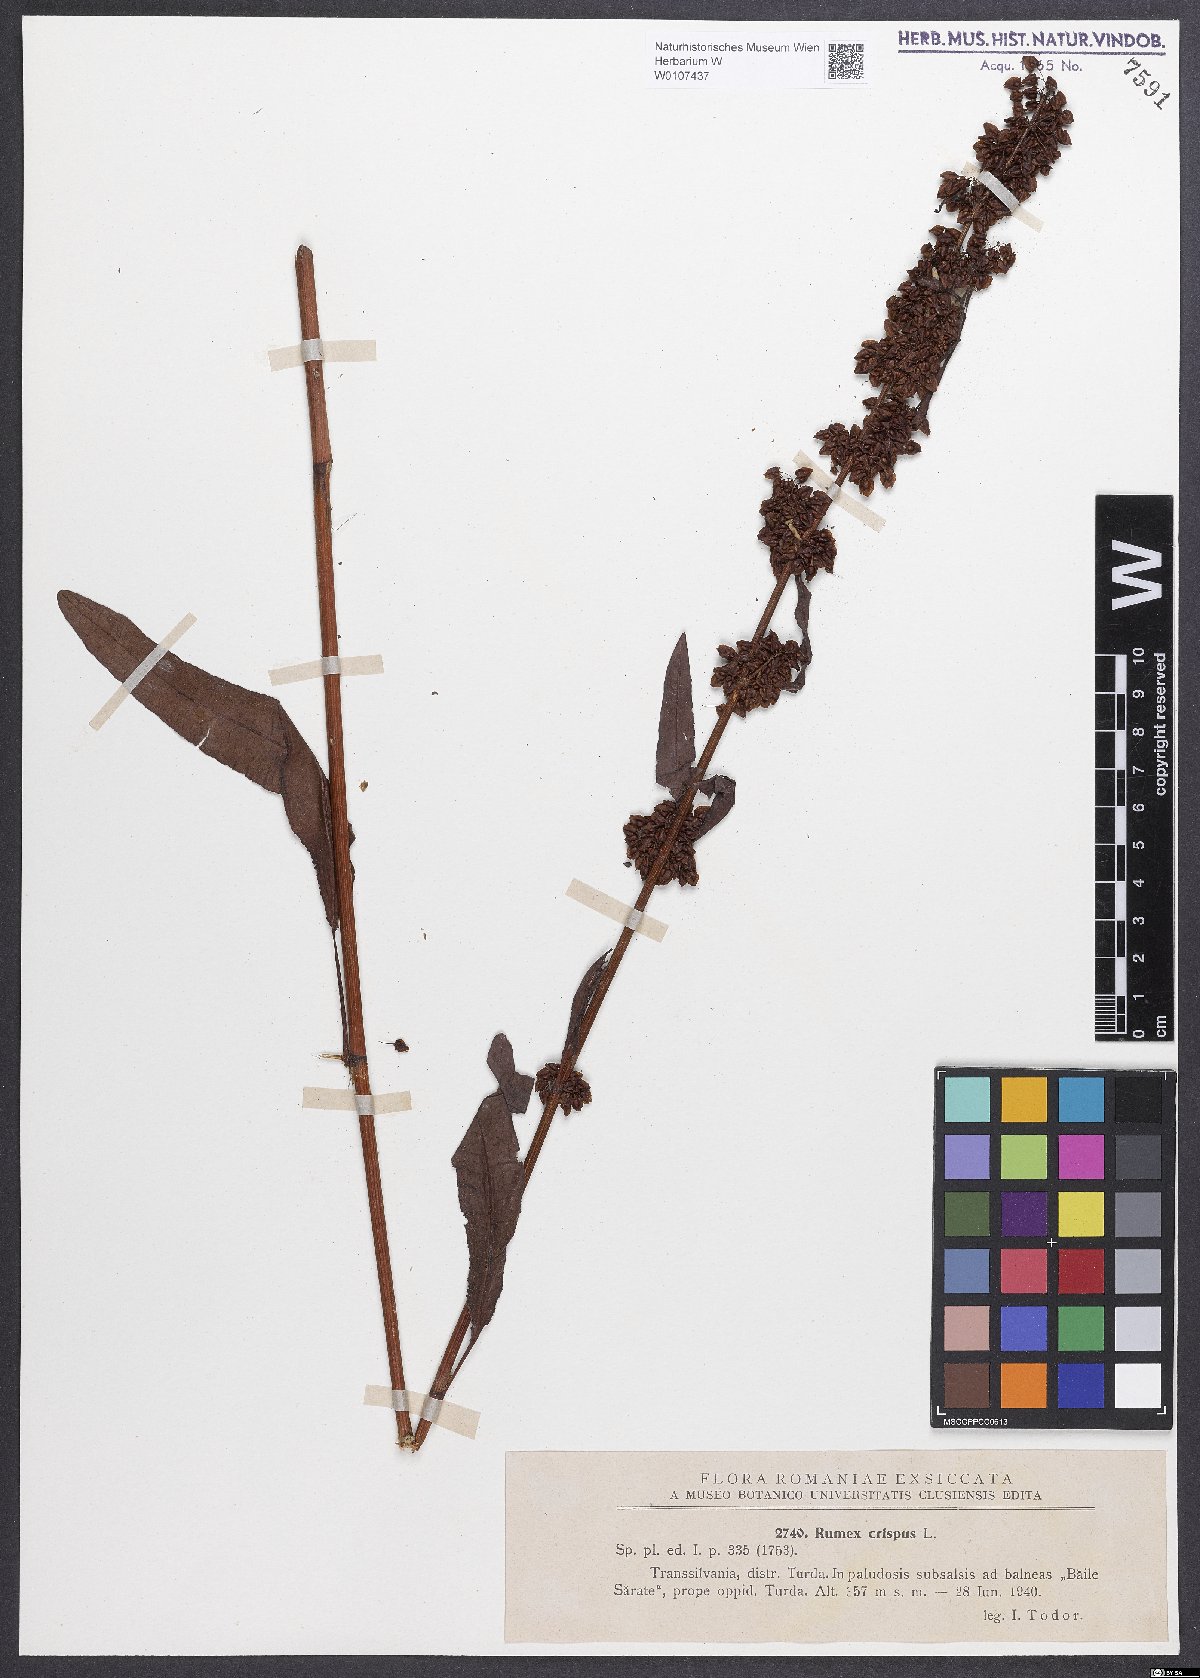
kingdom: Plantae
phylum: Tracheophyta
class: Magnoliopsida
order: Caryophyllales
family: Polygonaceae
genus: Rumex
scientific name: Rumex crispus
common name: Curled dock
